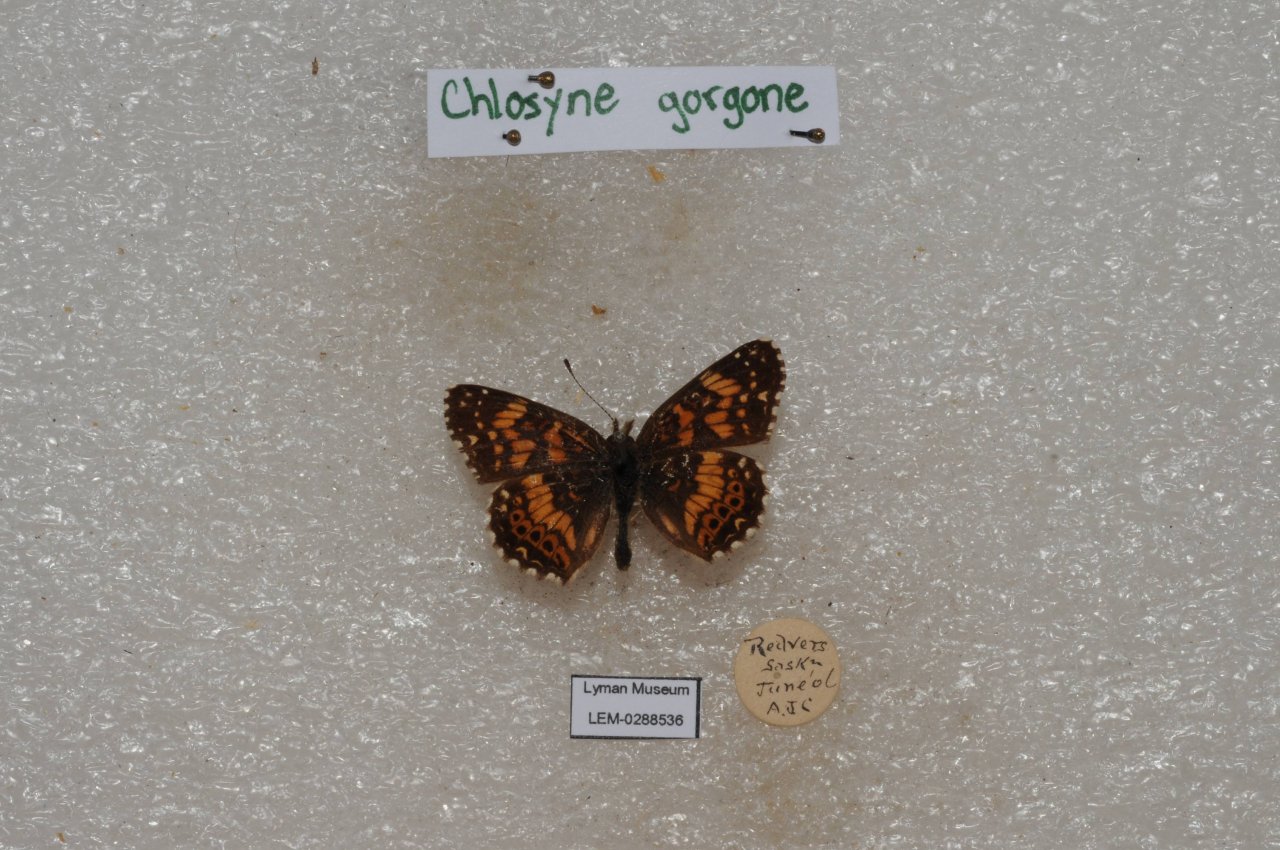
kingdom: Animalia
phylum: Arthropoda
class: Insecta
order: Lepidoptera
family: Nymphalidae
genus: Chlosyne
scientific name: Chlosyne gorgone
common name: Gorgone Checkerspot
